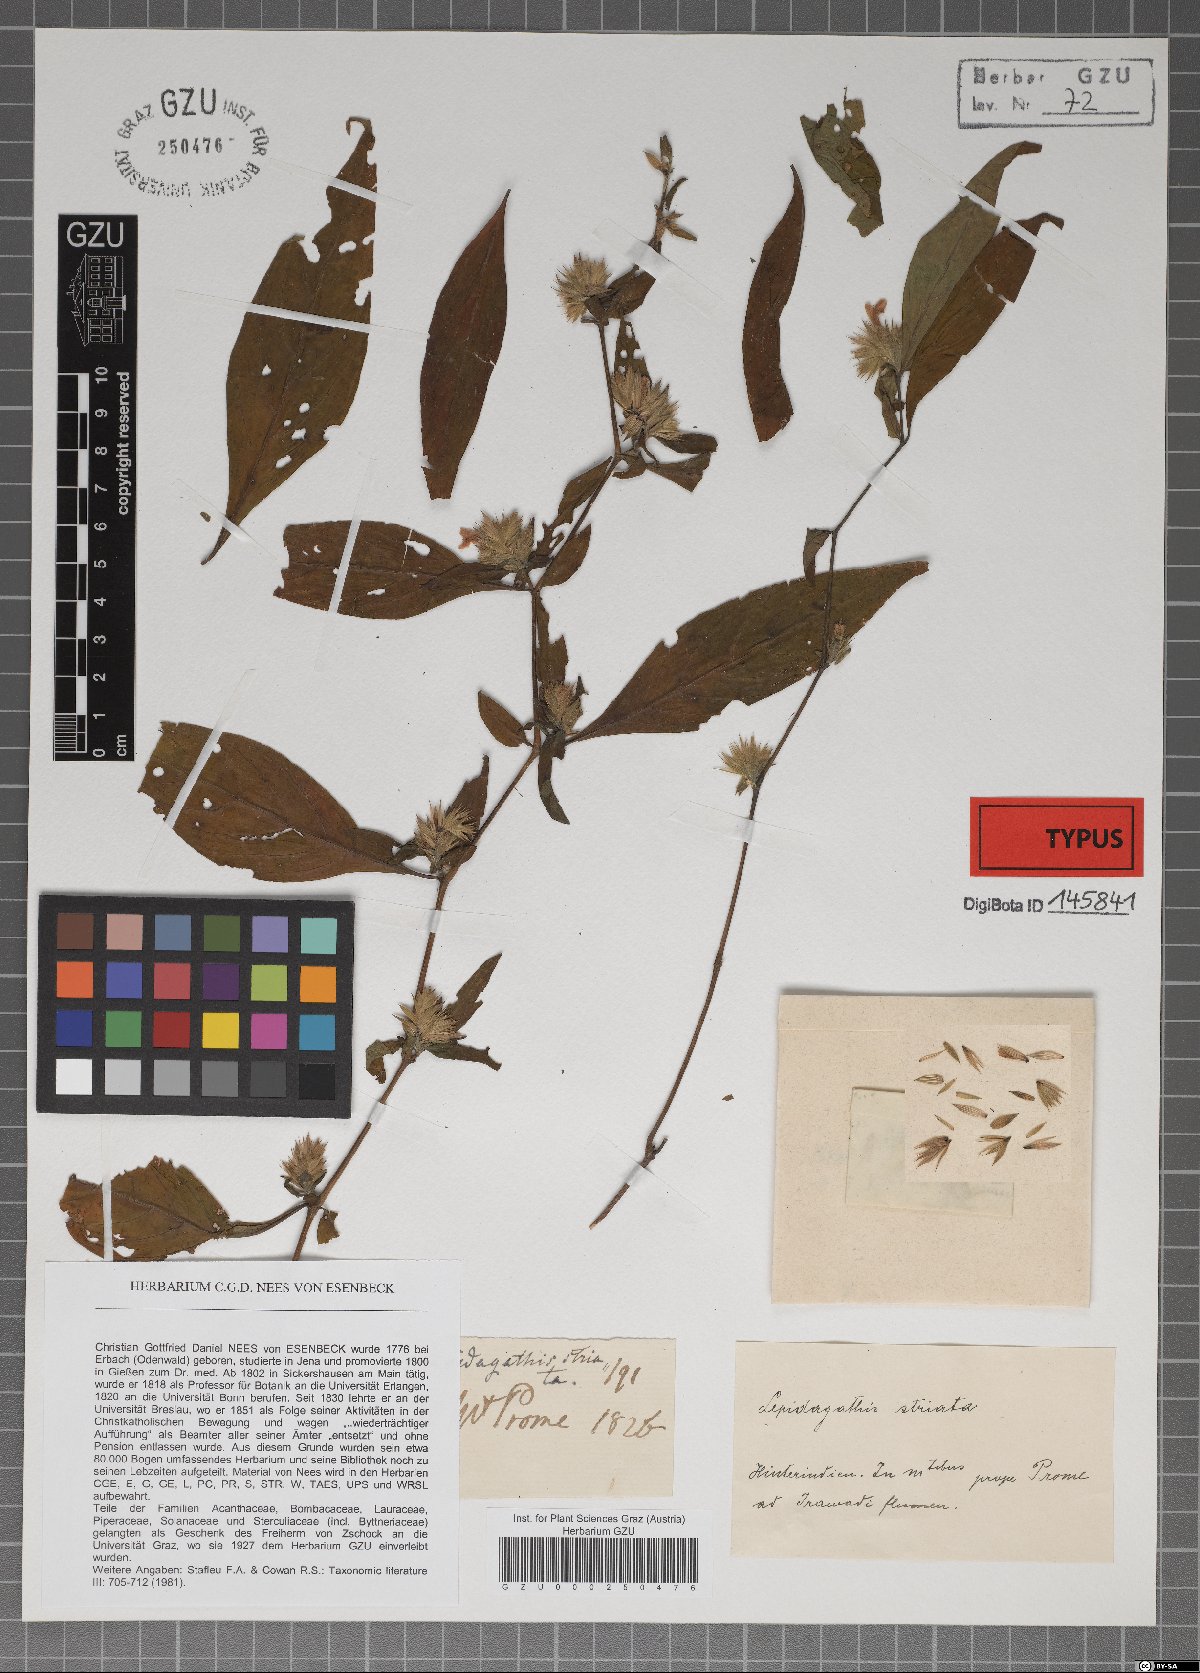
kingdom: Plantae
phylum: Tracheophyta
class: Magnoliopsida
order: Lamiales
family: Acanthaceae
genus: Lepidagathis
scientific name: Lepidagathis purpuricaulis
